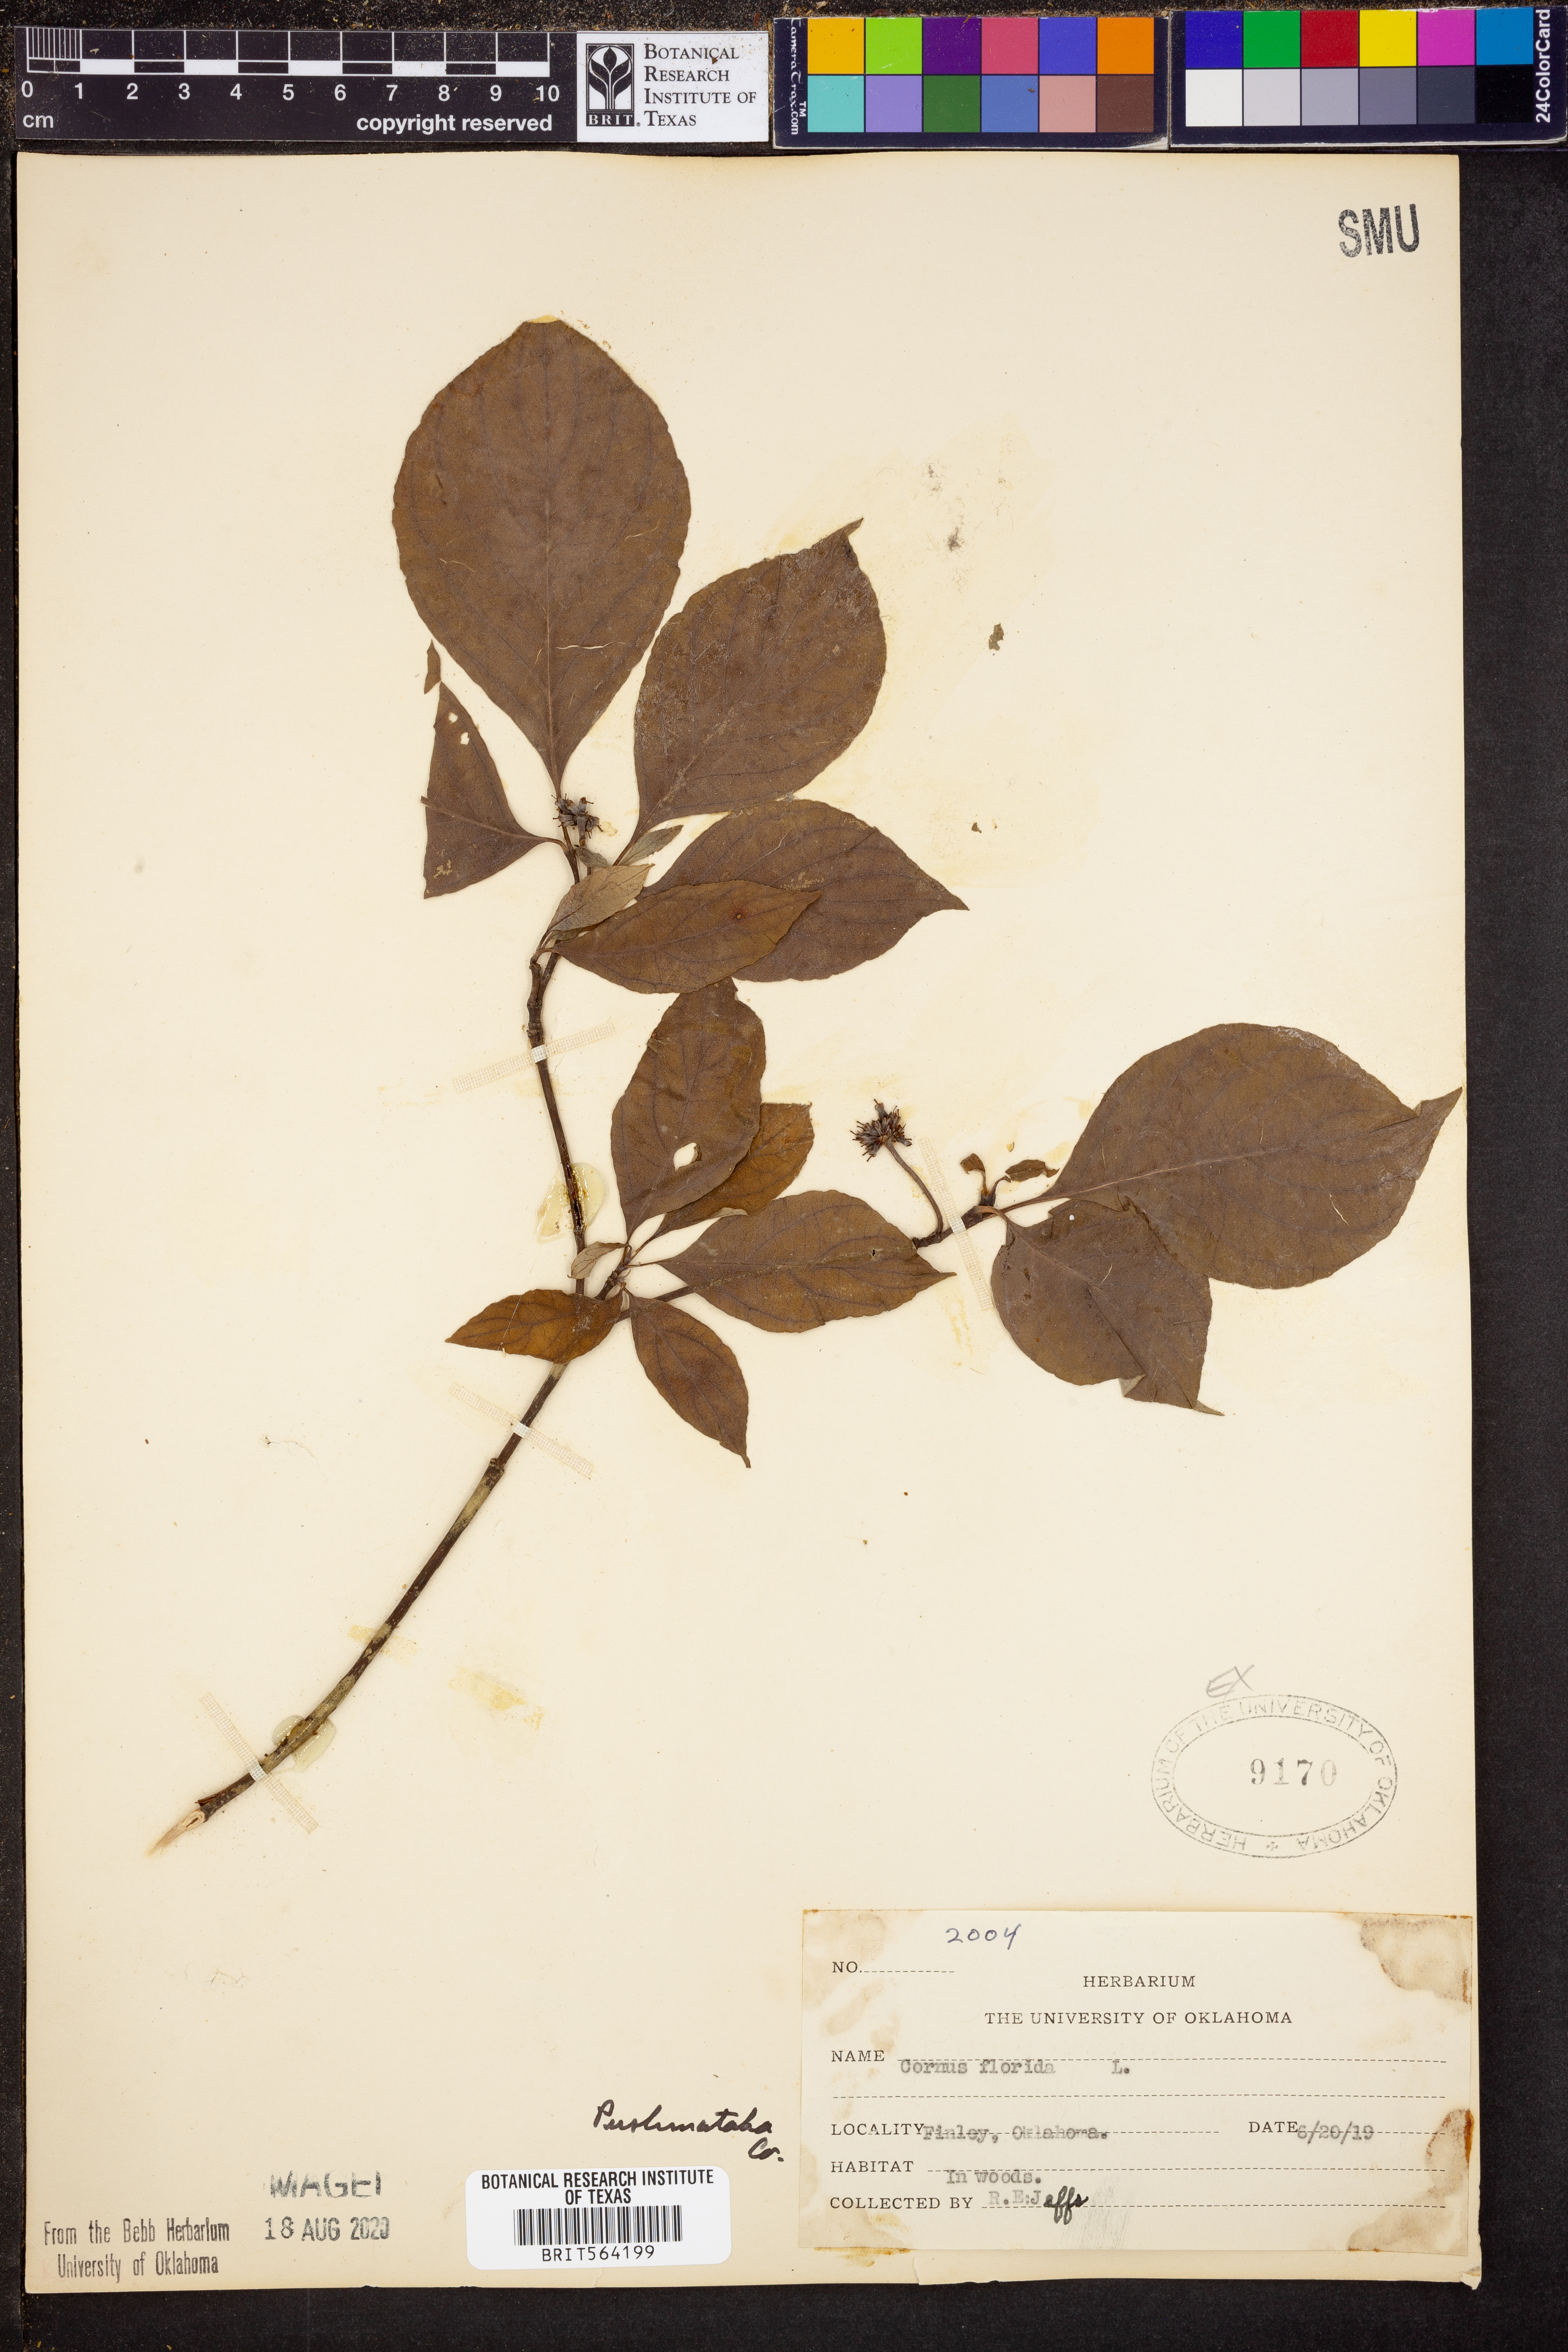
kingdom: Plantae
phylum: Tracheophyta
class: Magnoliopsida
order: Cornales
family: Cornaceae
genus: Cornus
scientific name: Cornus florida
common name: Flowering dogwood
